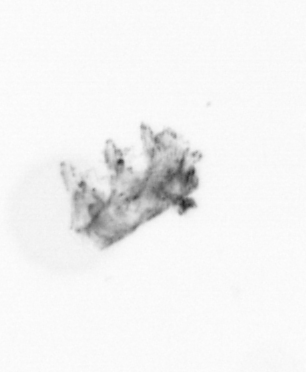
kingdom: Animalia
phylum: Cnidaria
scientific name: Cnidaria
